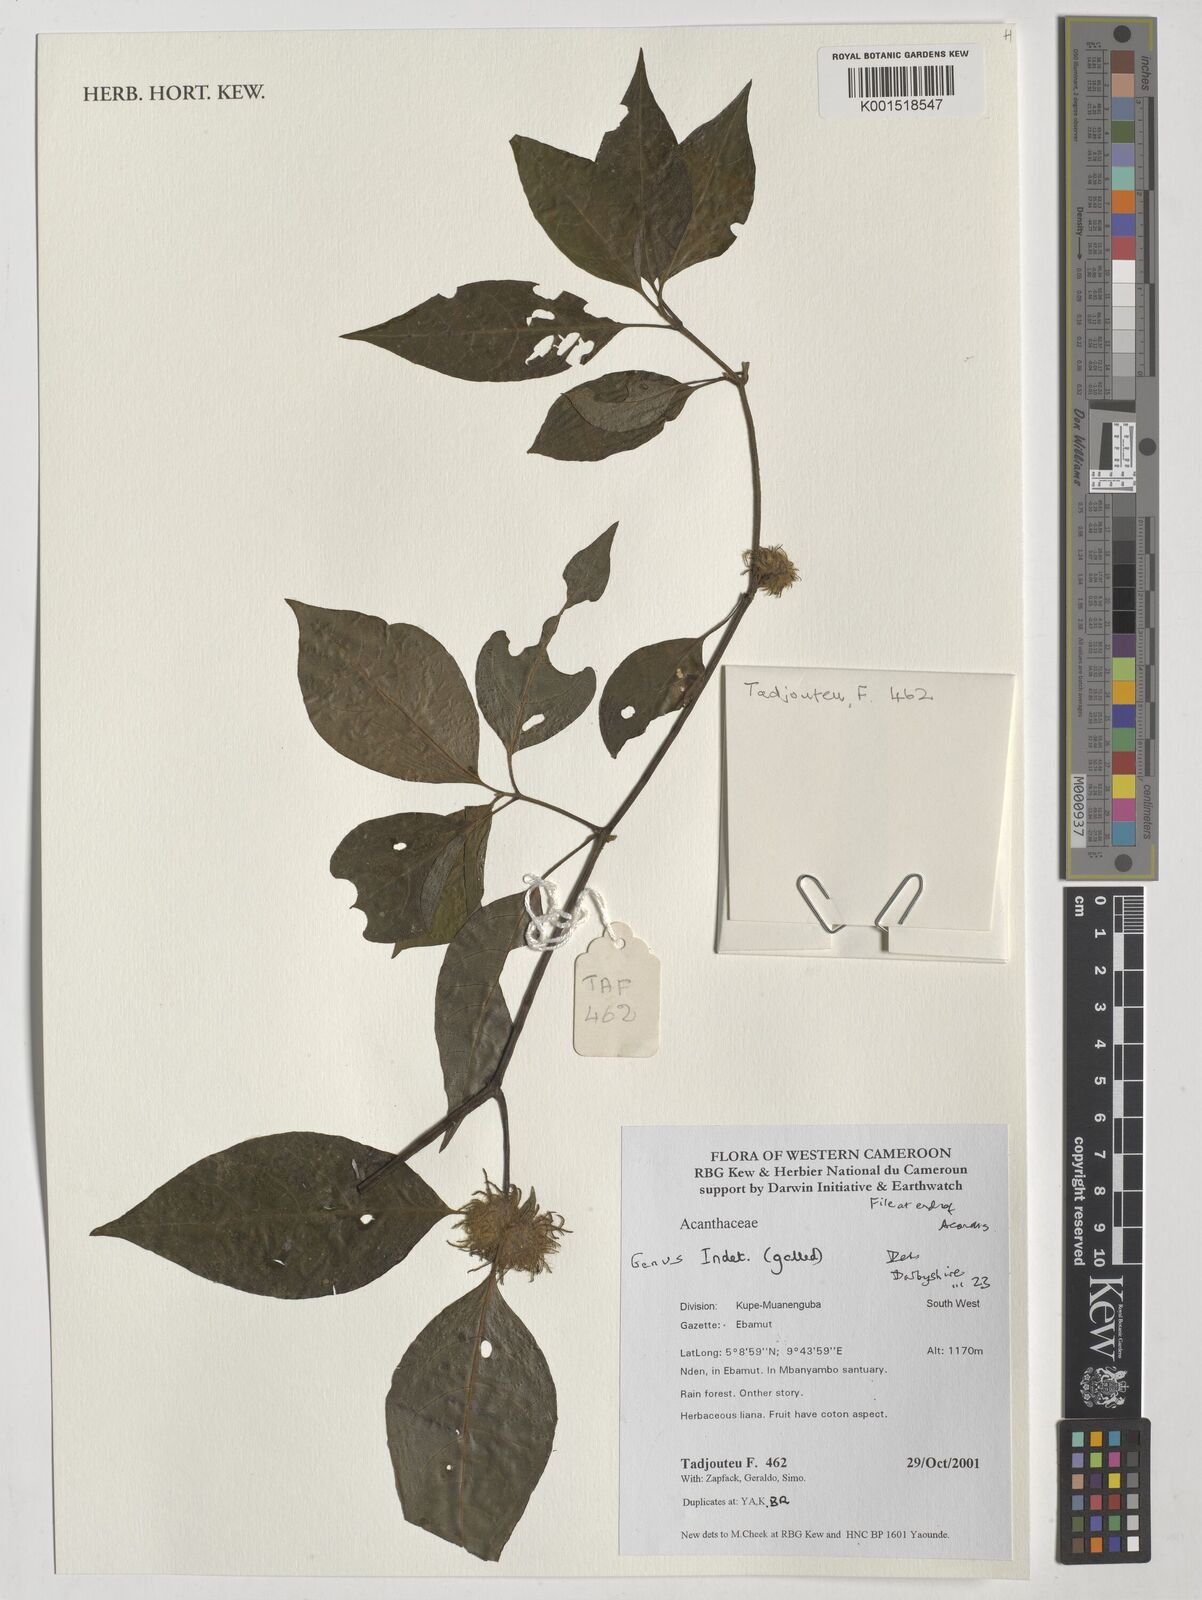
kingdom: Plantae
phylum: Tracheophyta
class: Magnoliopsida
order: Lamiales
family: Acanthaceae
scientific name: Acanthaceae
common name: Acanthaceae
